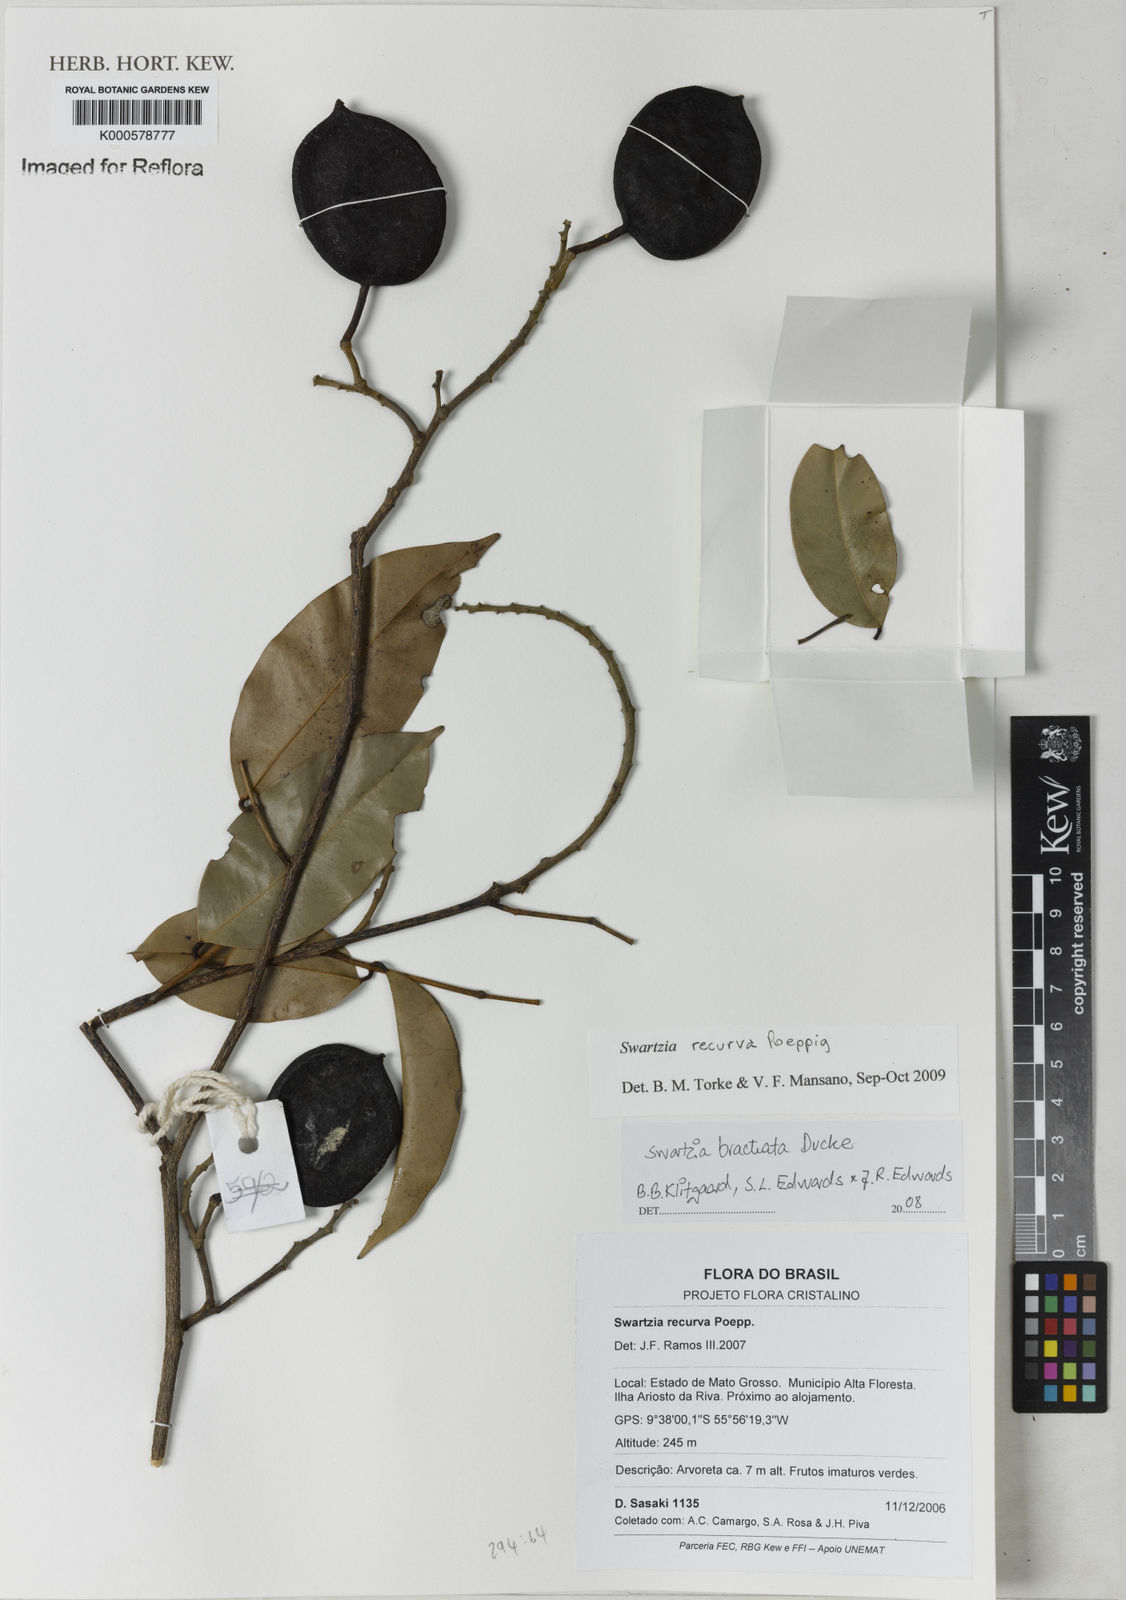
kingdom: Plantae
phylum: Tracheophyta
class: Magnoliopsida
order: Fabales
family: Fabaceae
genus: Swartzia
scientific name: Swartzia recurva
